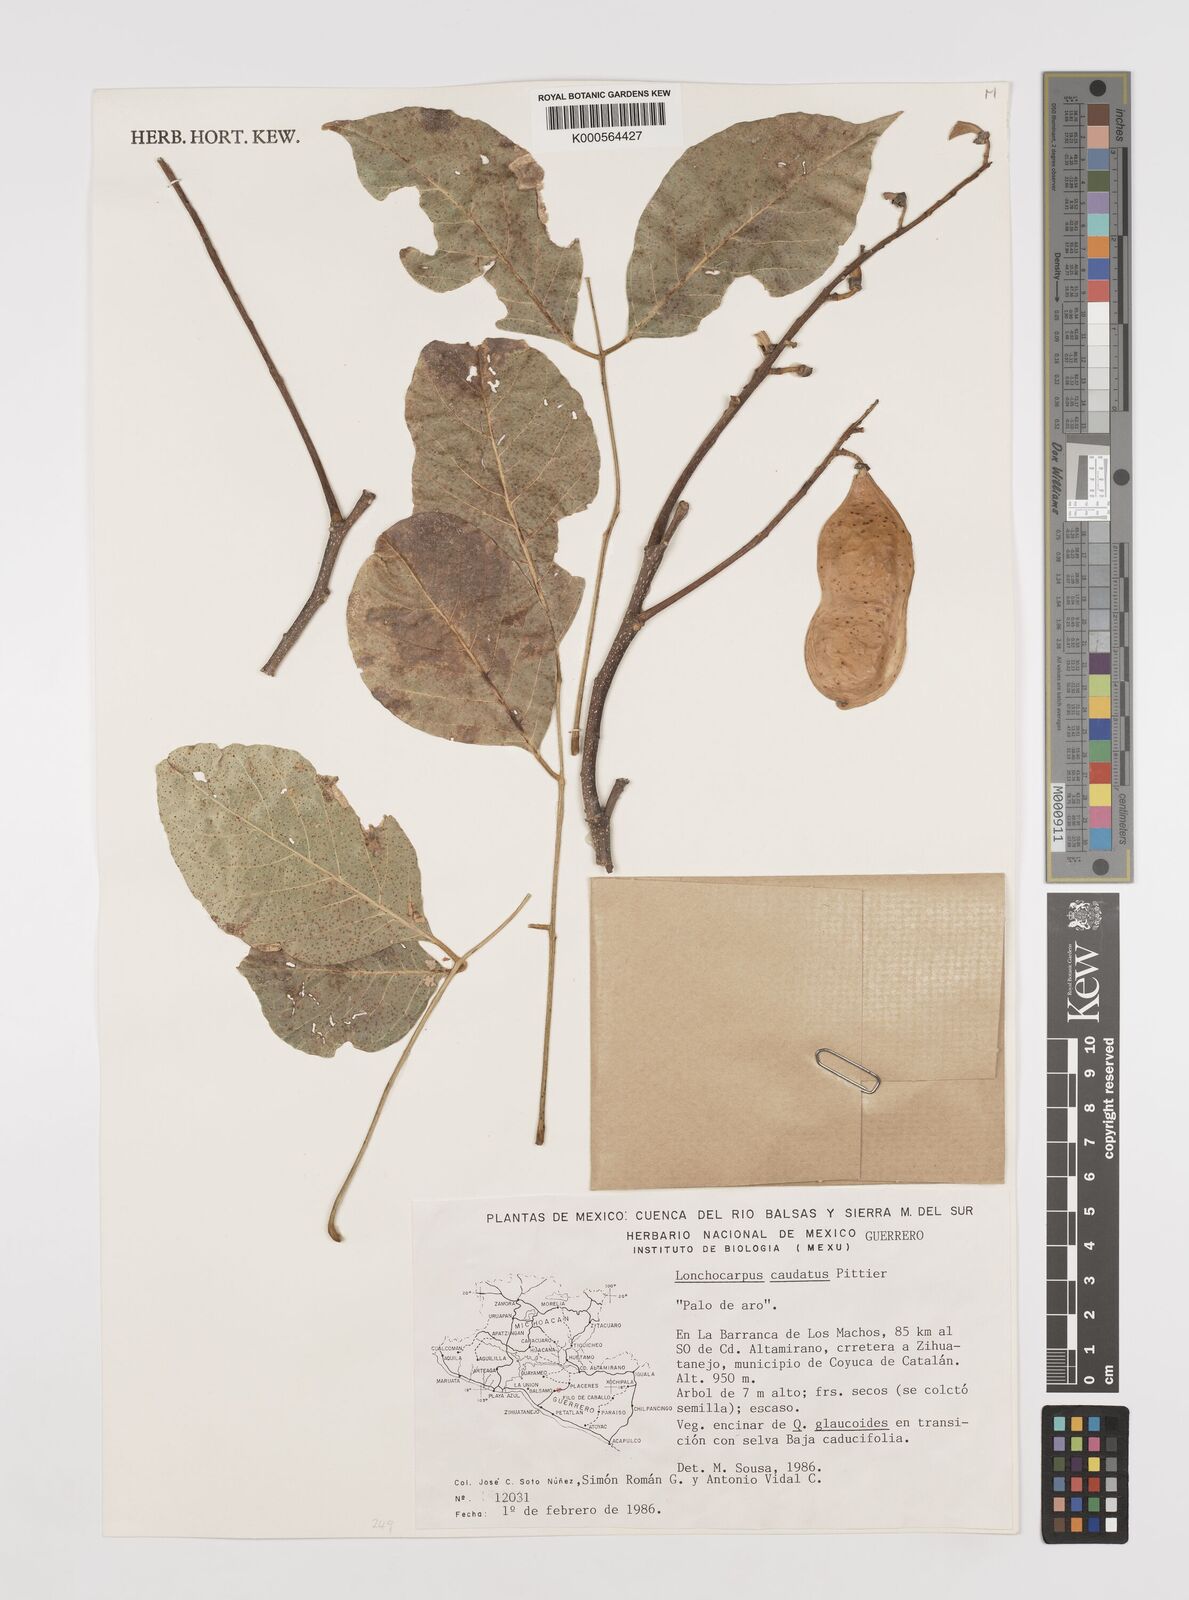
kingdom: Plantae
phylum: Tracheophyta
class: Magnoliopsida
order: Fabales
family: Fabaceae
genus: Lonchocarpus
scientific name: Lonchocarpus caudatus
